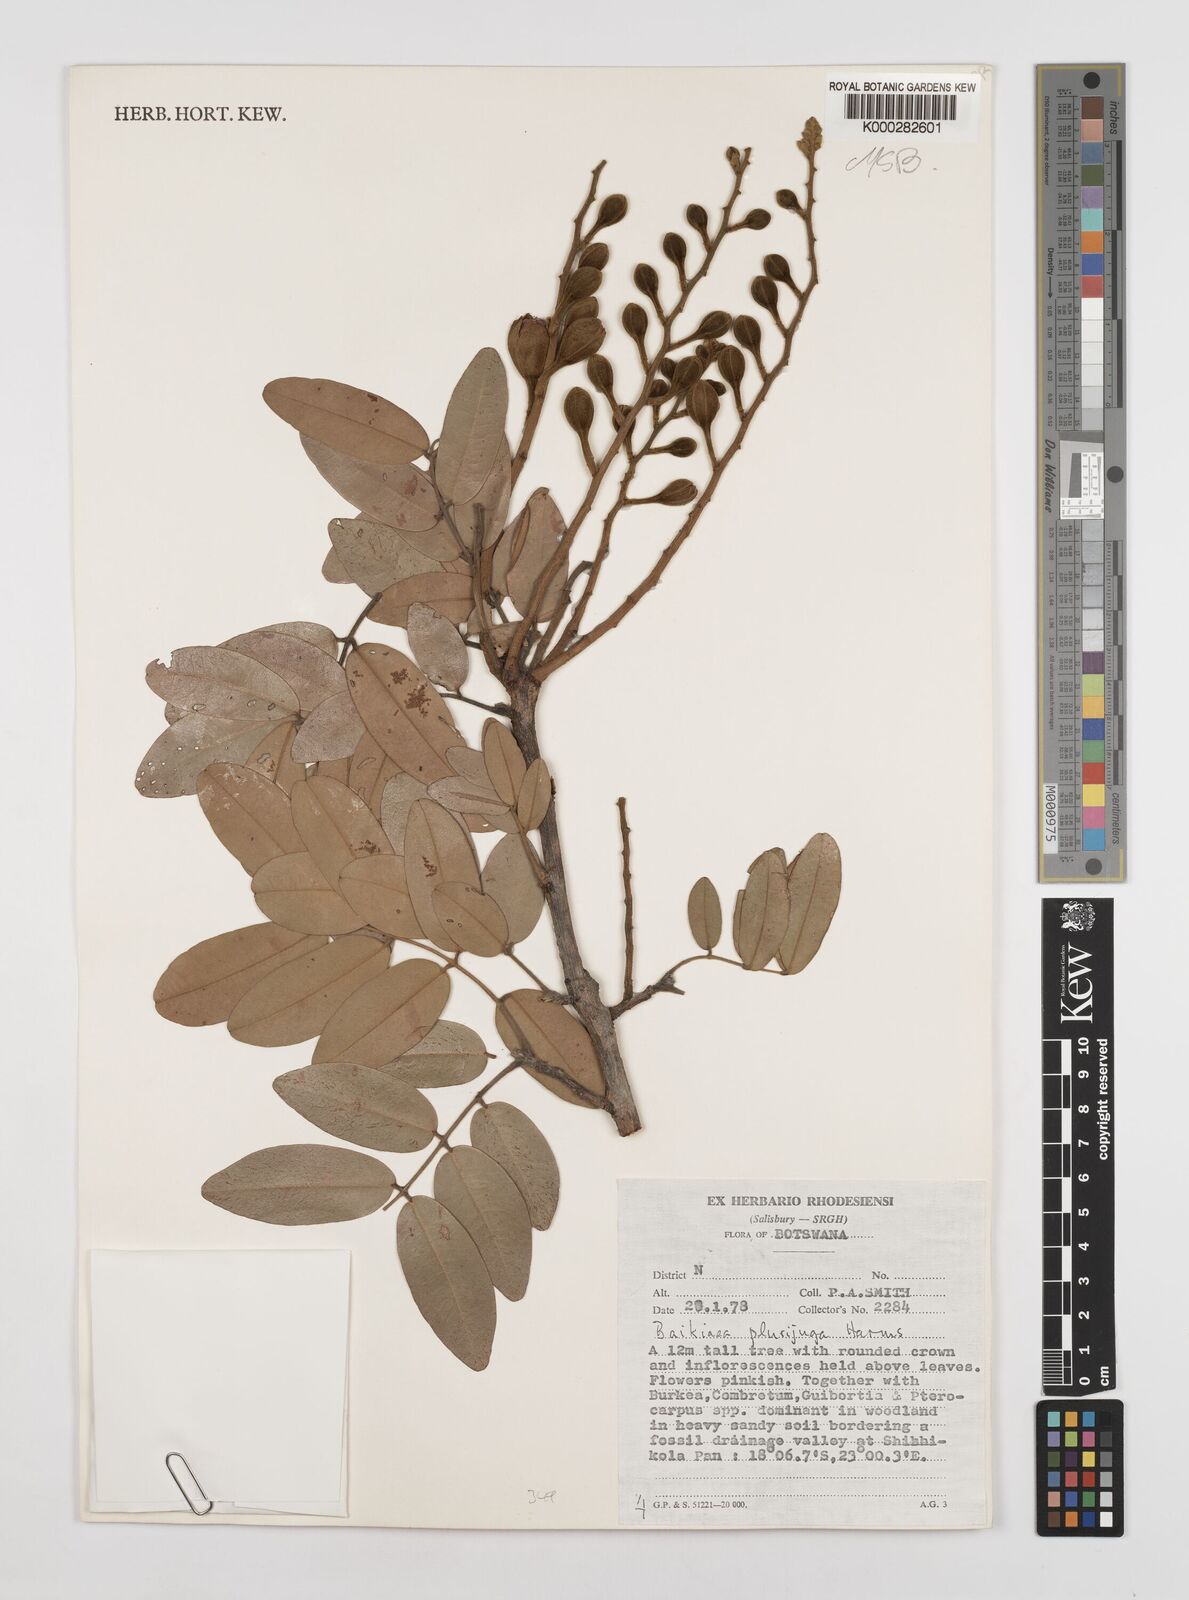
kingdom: Plantae
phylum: Tracheophyta
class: Magnoliopsida
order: Fabales
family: Fabaceae
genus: Baikiaea
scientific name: Baikiaea plurijuga
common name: Rhodesian-teak
